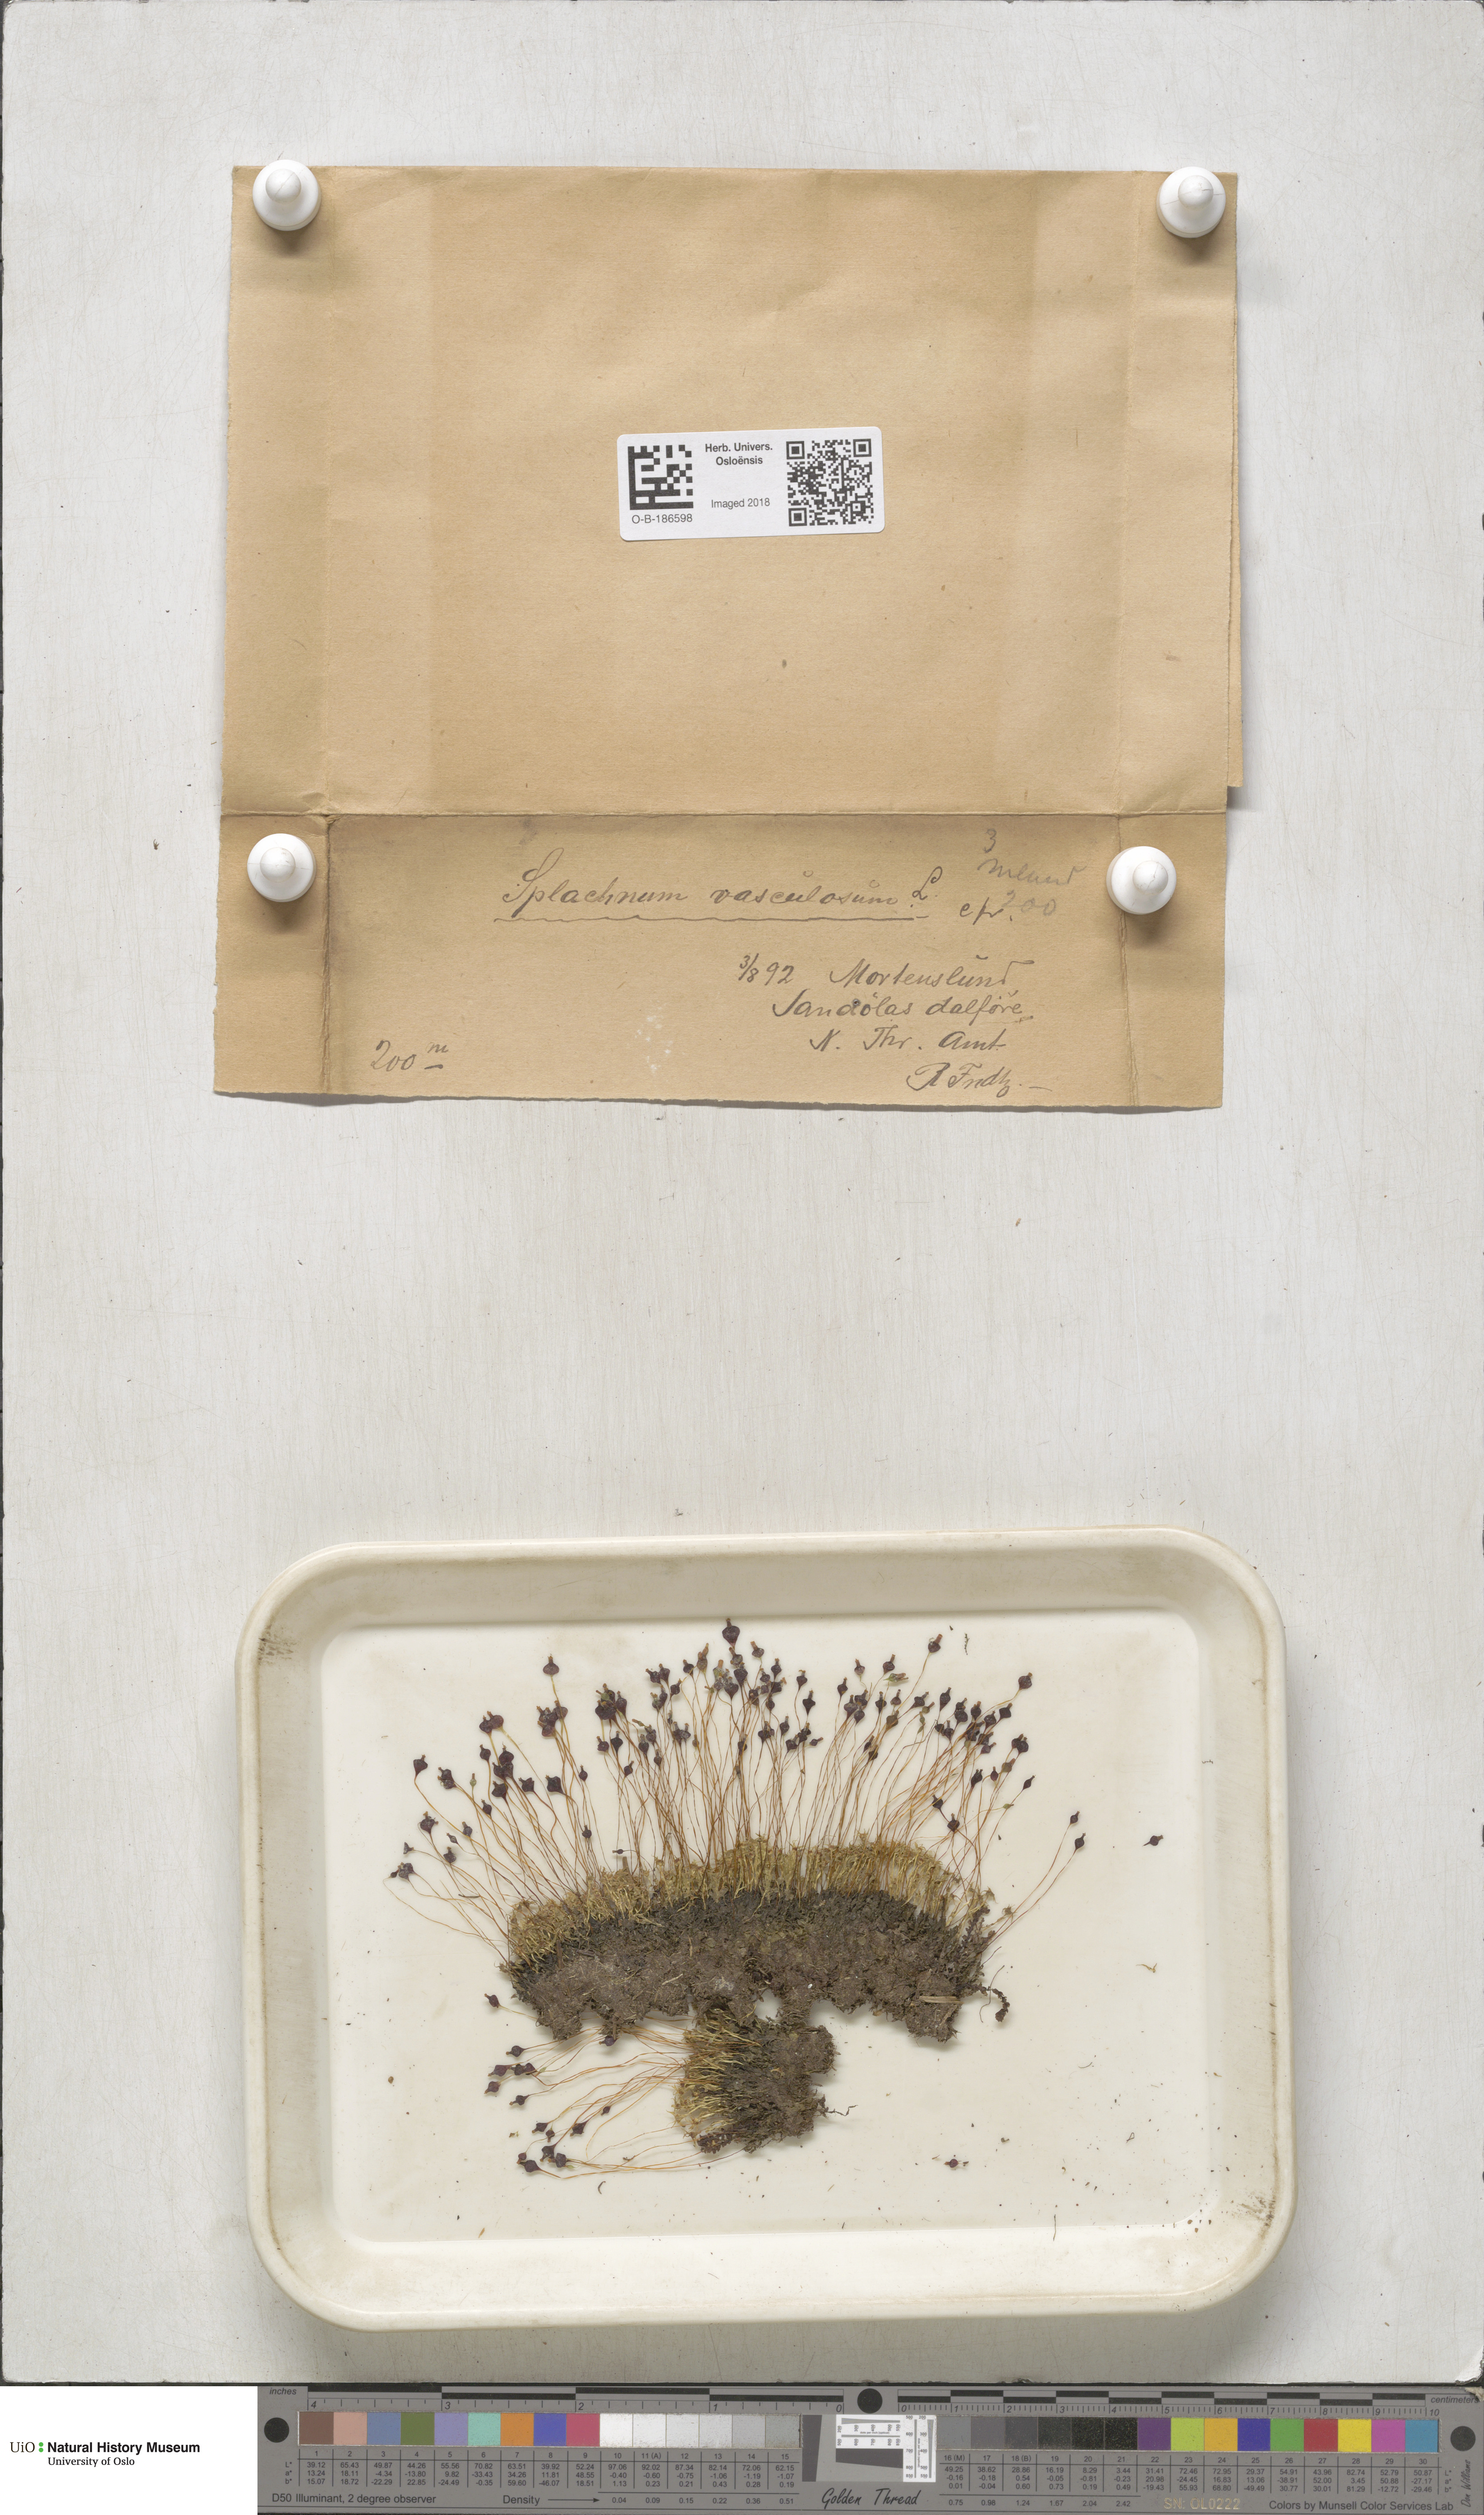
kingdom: Plantae
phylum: Bryophyta
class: Bryopsida
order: Splachnales
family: Splachnaceae
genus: Splachnum
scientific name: Splachnum vasculosum
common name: Rugged dung moss
